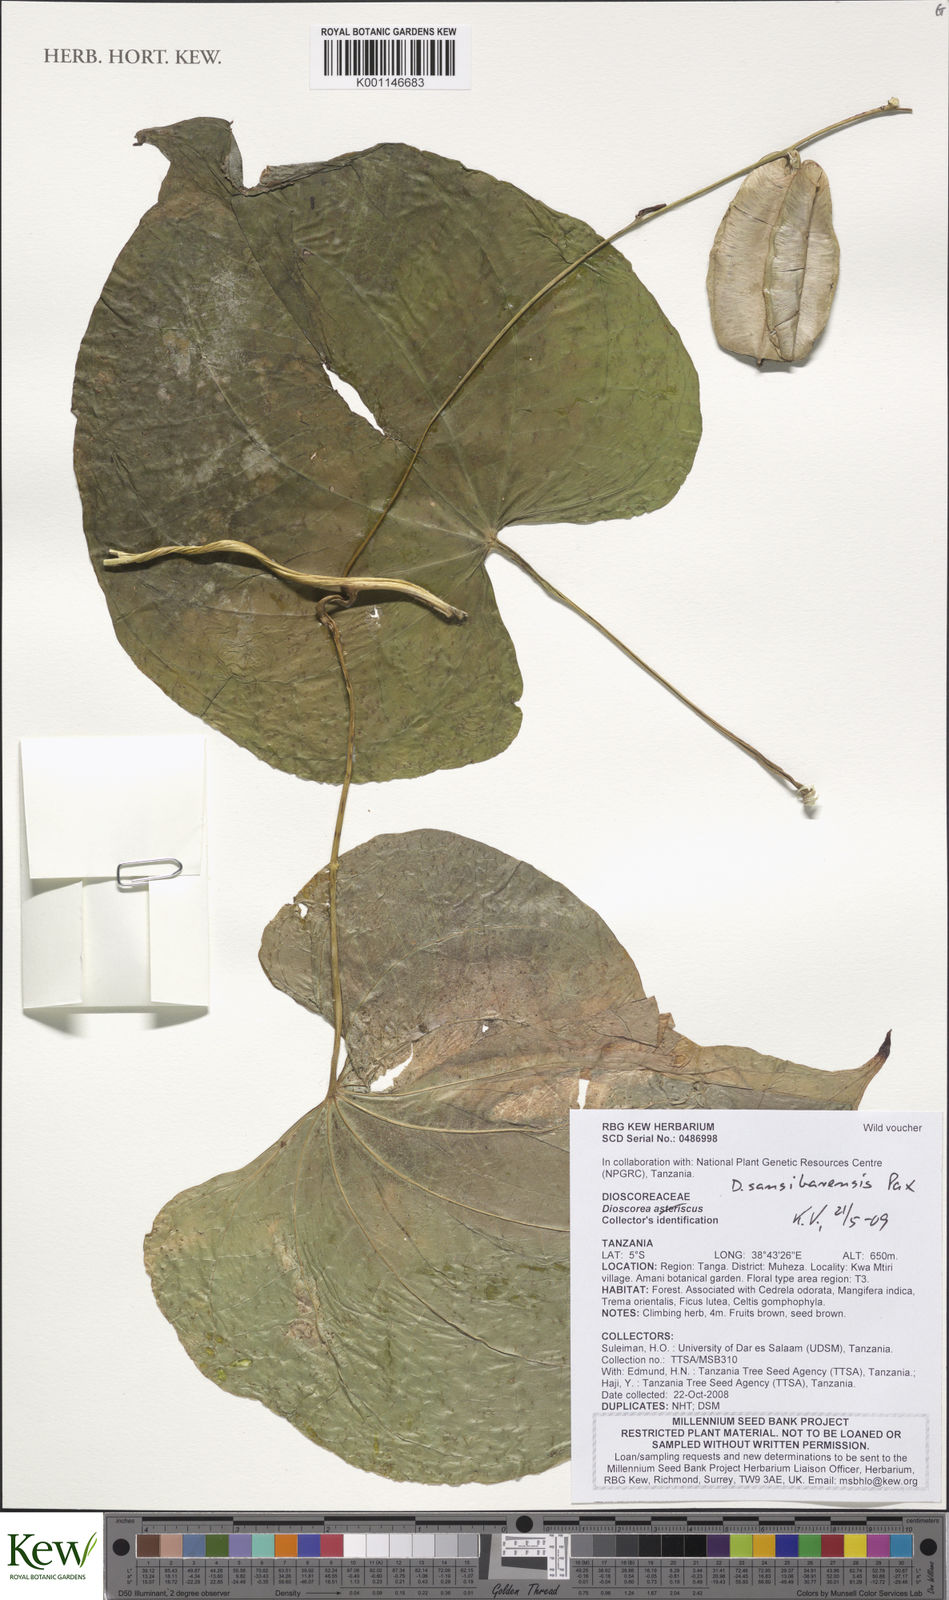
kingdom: Plantae
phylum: Tracheophyta
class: Liliopsida
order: Dioscoreales
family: Dioscoreaceae
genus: Dioscorea
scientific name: Dioscorea sansibarensis
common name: Zanzibar yam
